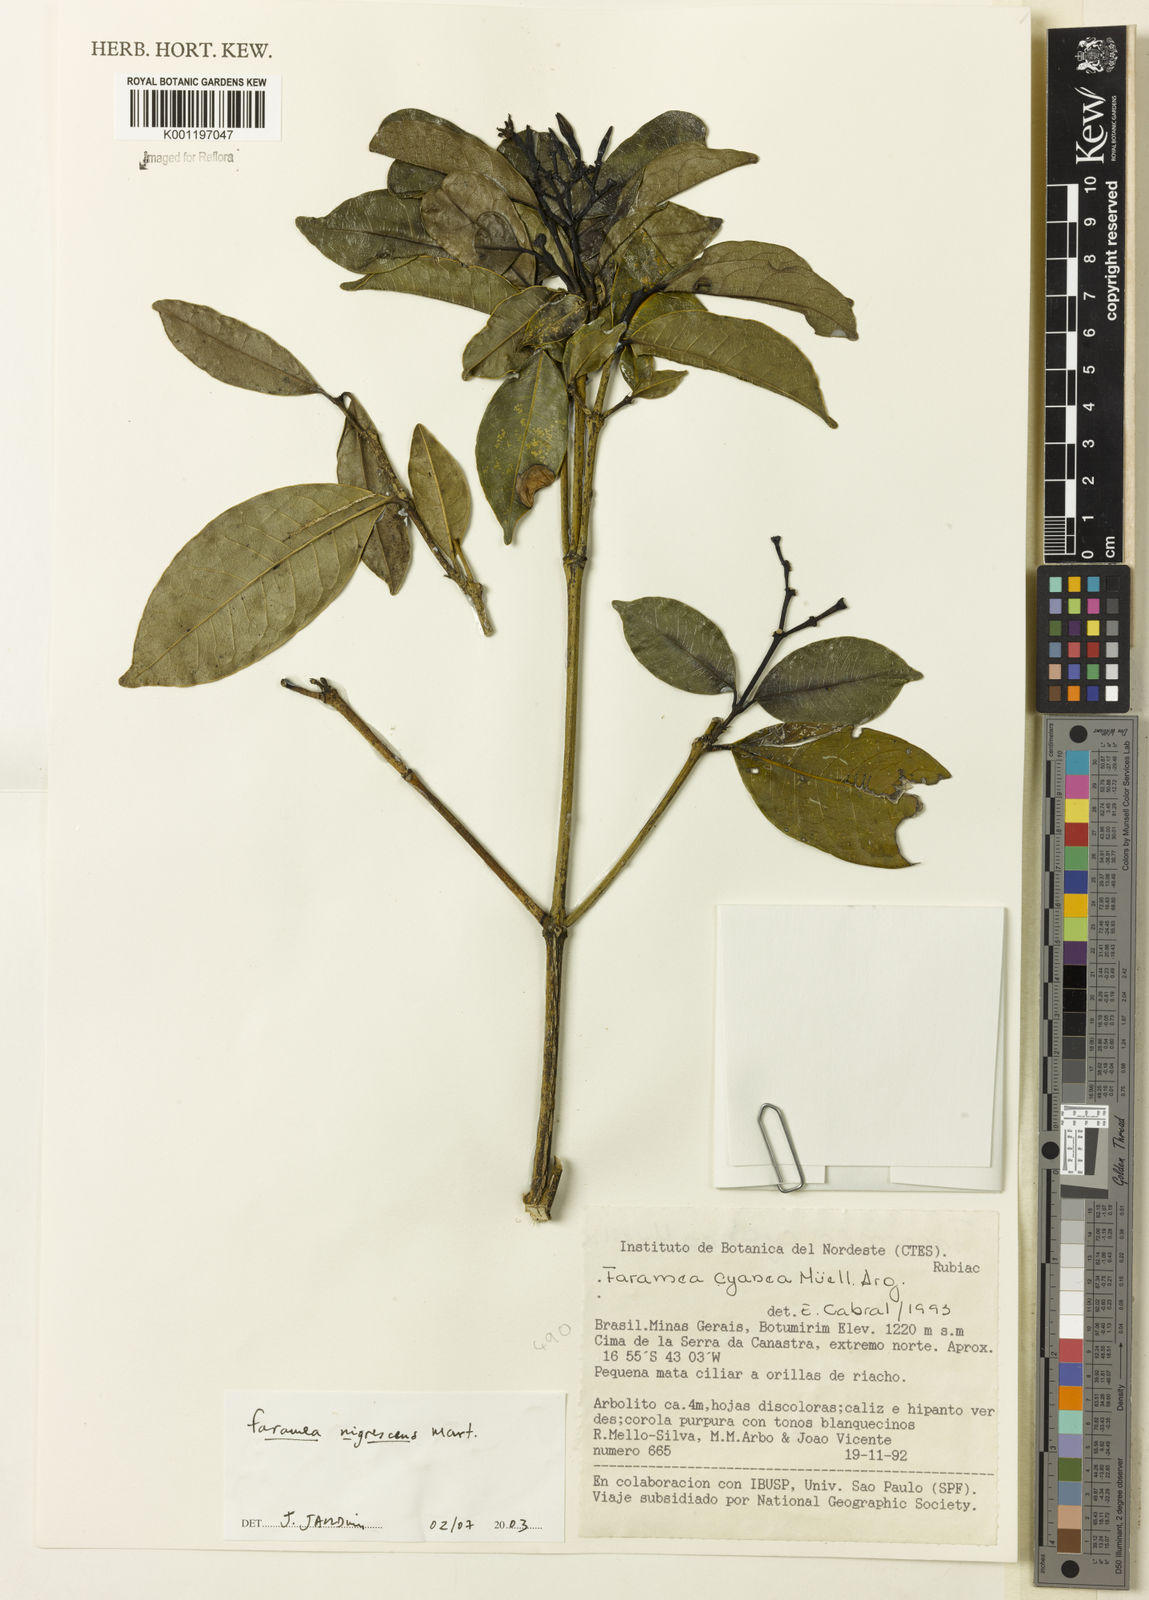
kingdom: Plantae
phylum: Tracheophyta
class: Magnoliopsida
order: Gentianales
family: Rubiaceae
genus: Faramea
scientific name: Faramea nigrescens
